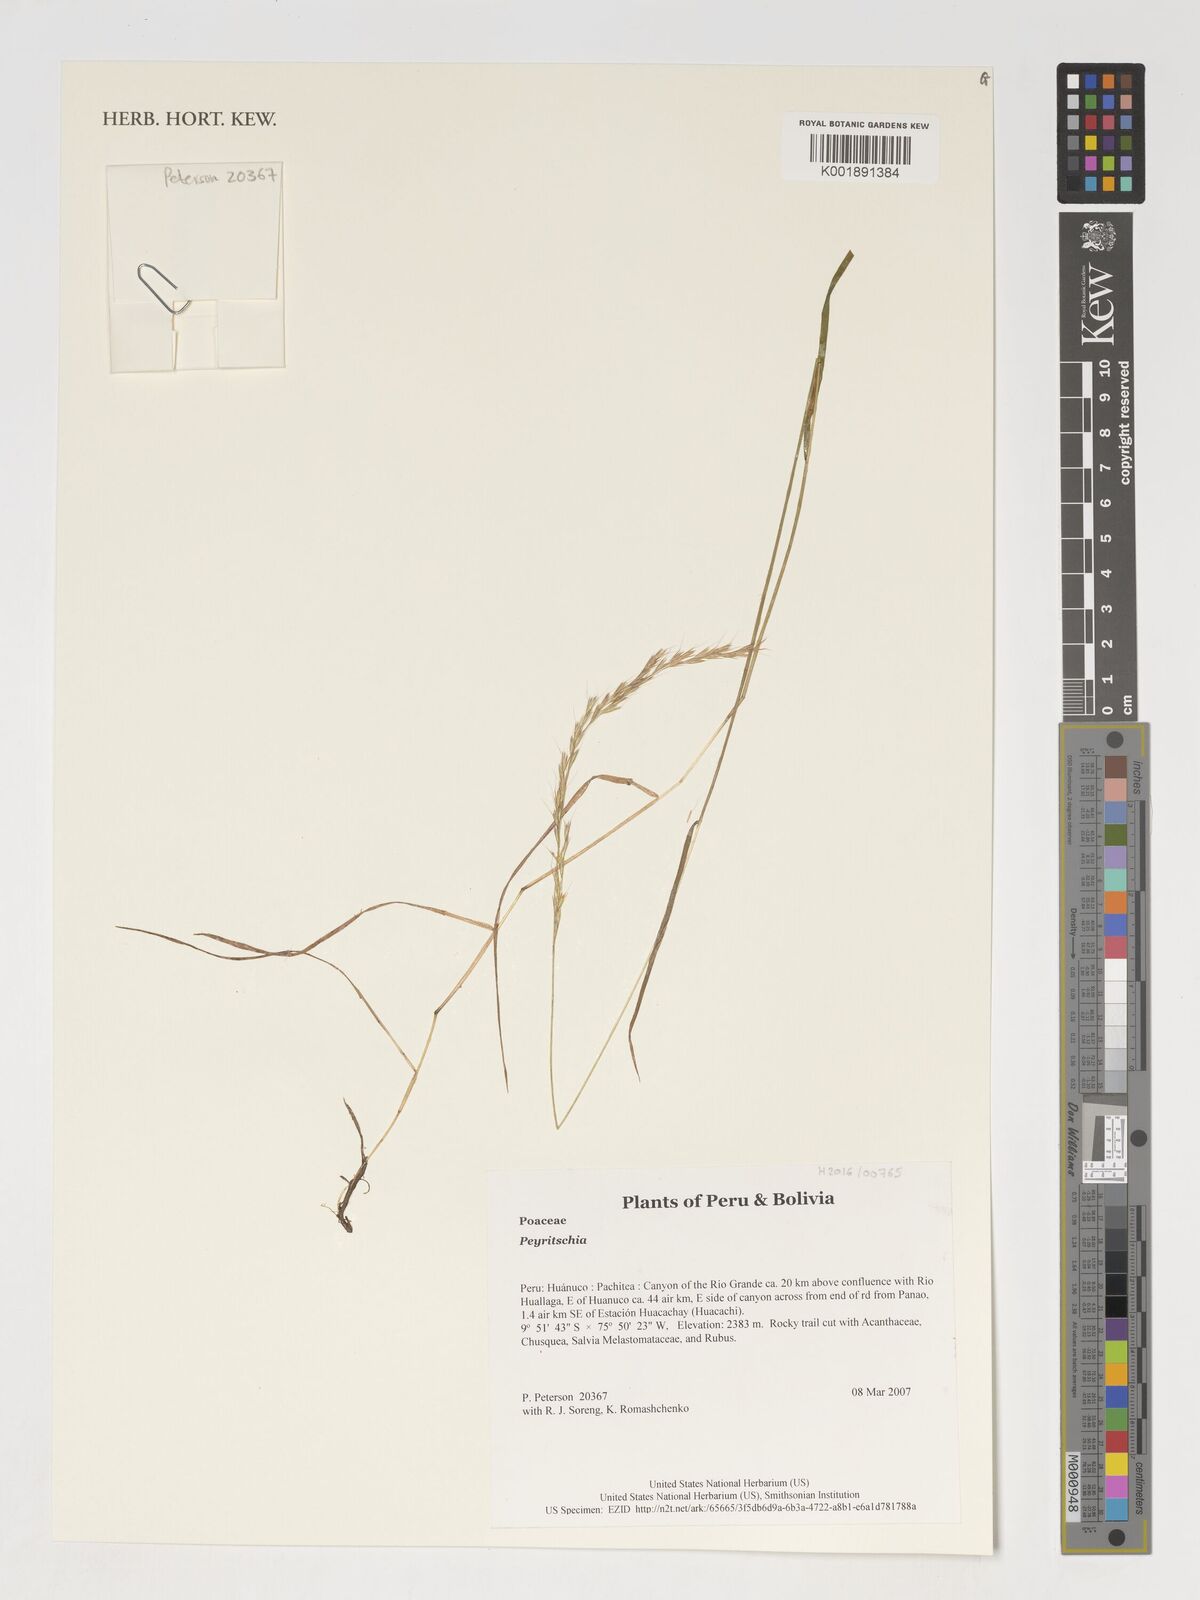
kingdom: Plantae
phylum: Tracheophyta
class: Liliopsida
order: Poales
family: Poaceae
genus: Peyritschia
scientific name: Peyritschia
